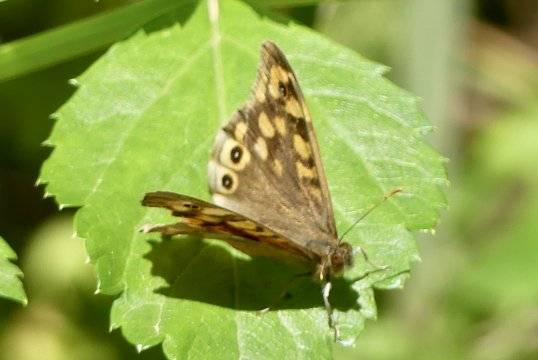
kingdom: Animalia
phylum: Arthropoda
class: Insecta
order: Lepidoptera
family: Nymphalidae
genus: Pararge
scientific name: Pararge aegeria
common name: Speckled Wood Butterfly
